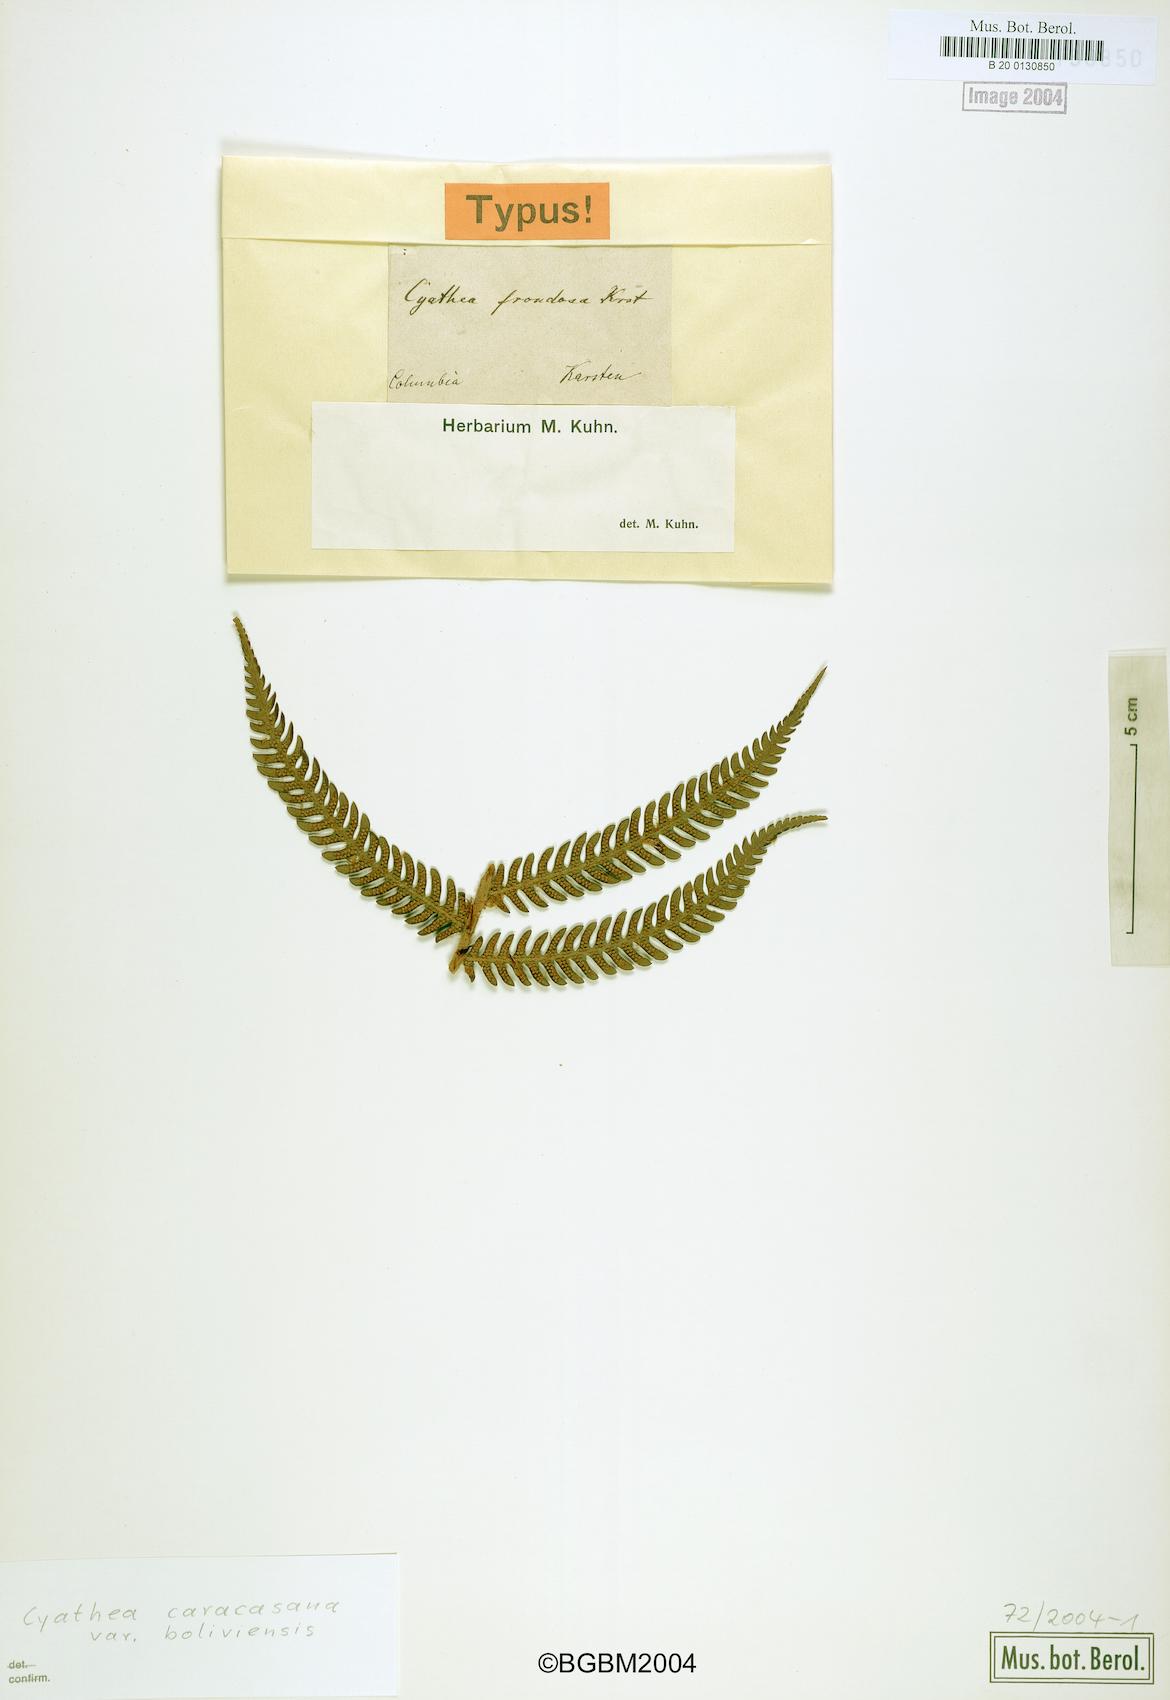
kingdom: Plantae
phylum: Tracheophyta
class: Polypodiopsida
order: Cyatheales
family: Cyatheaceae
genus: Cyathea
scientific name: Cyathea frondosa
